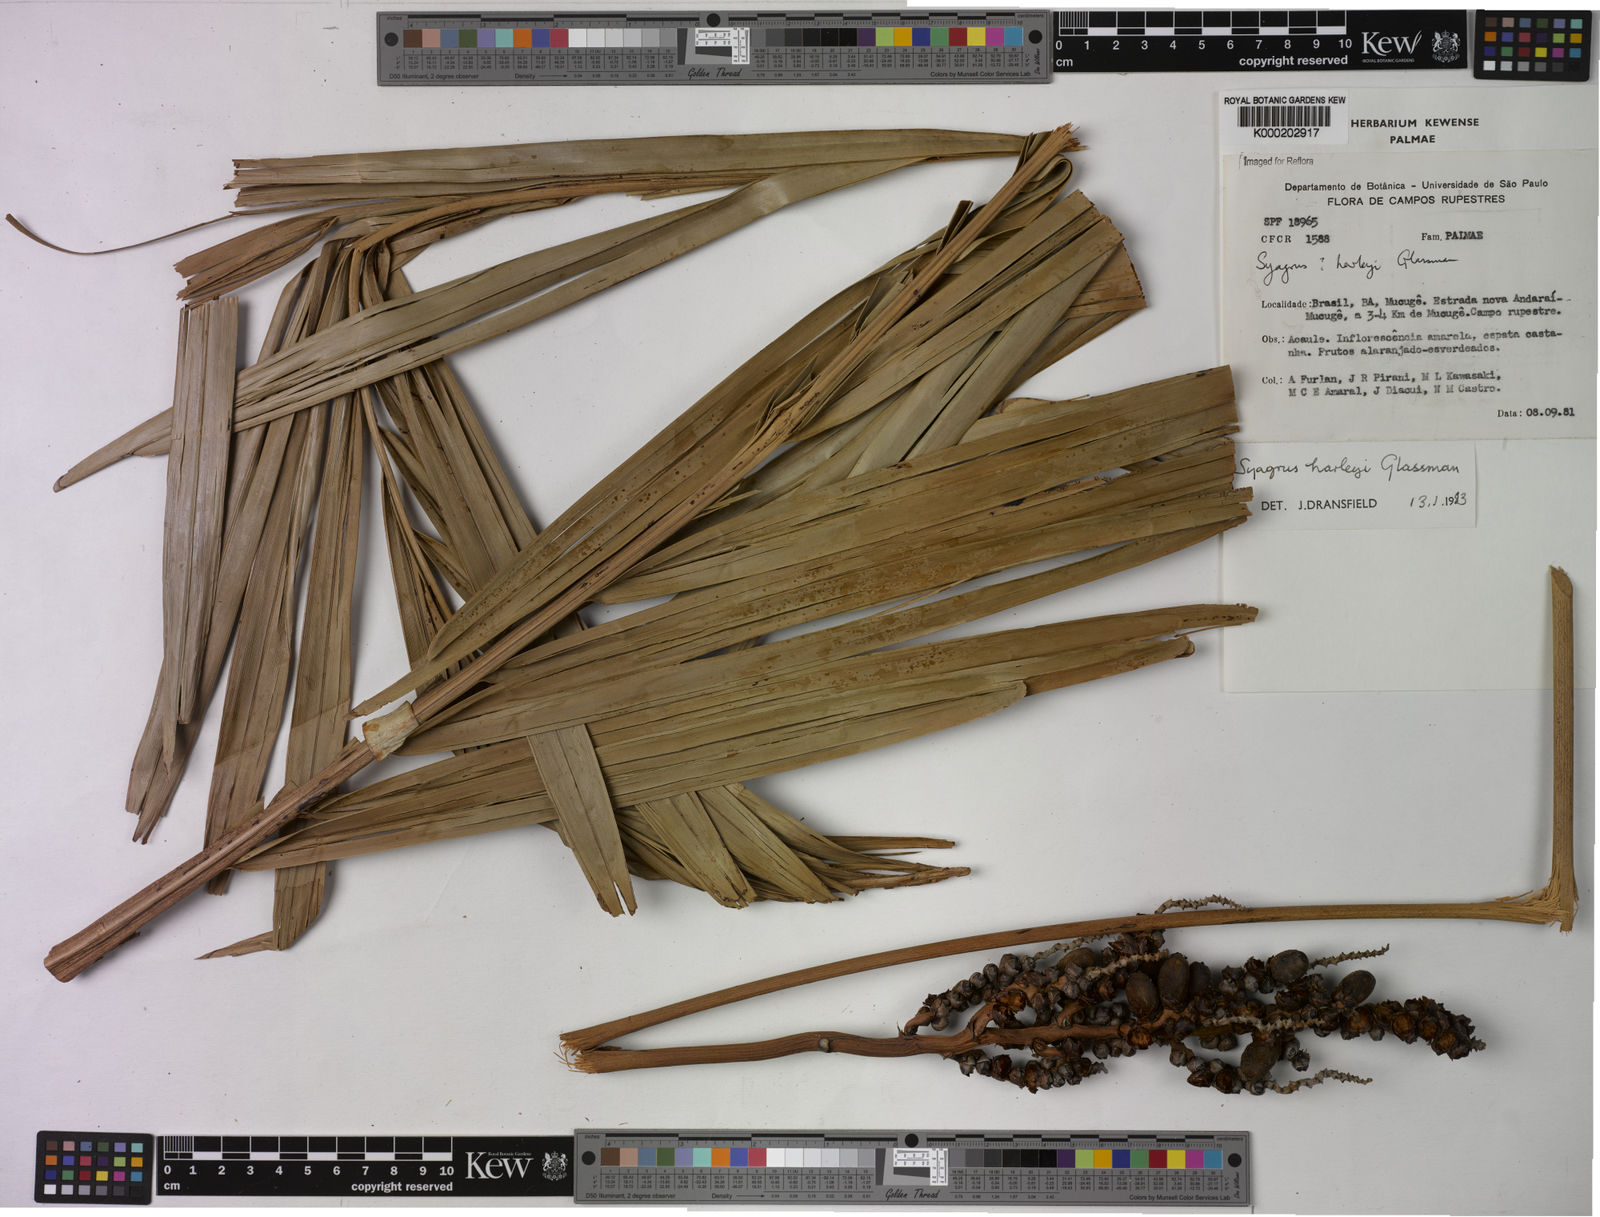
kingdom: Plantae
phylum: Tracheophyta
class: Liliopsida
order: Arecales
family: Arecaceae
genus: Syagrus
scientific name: Syagrus harleyi
